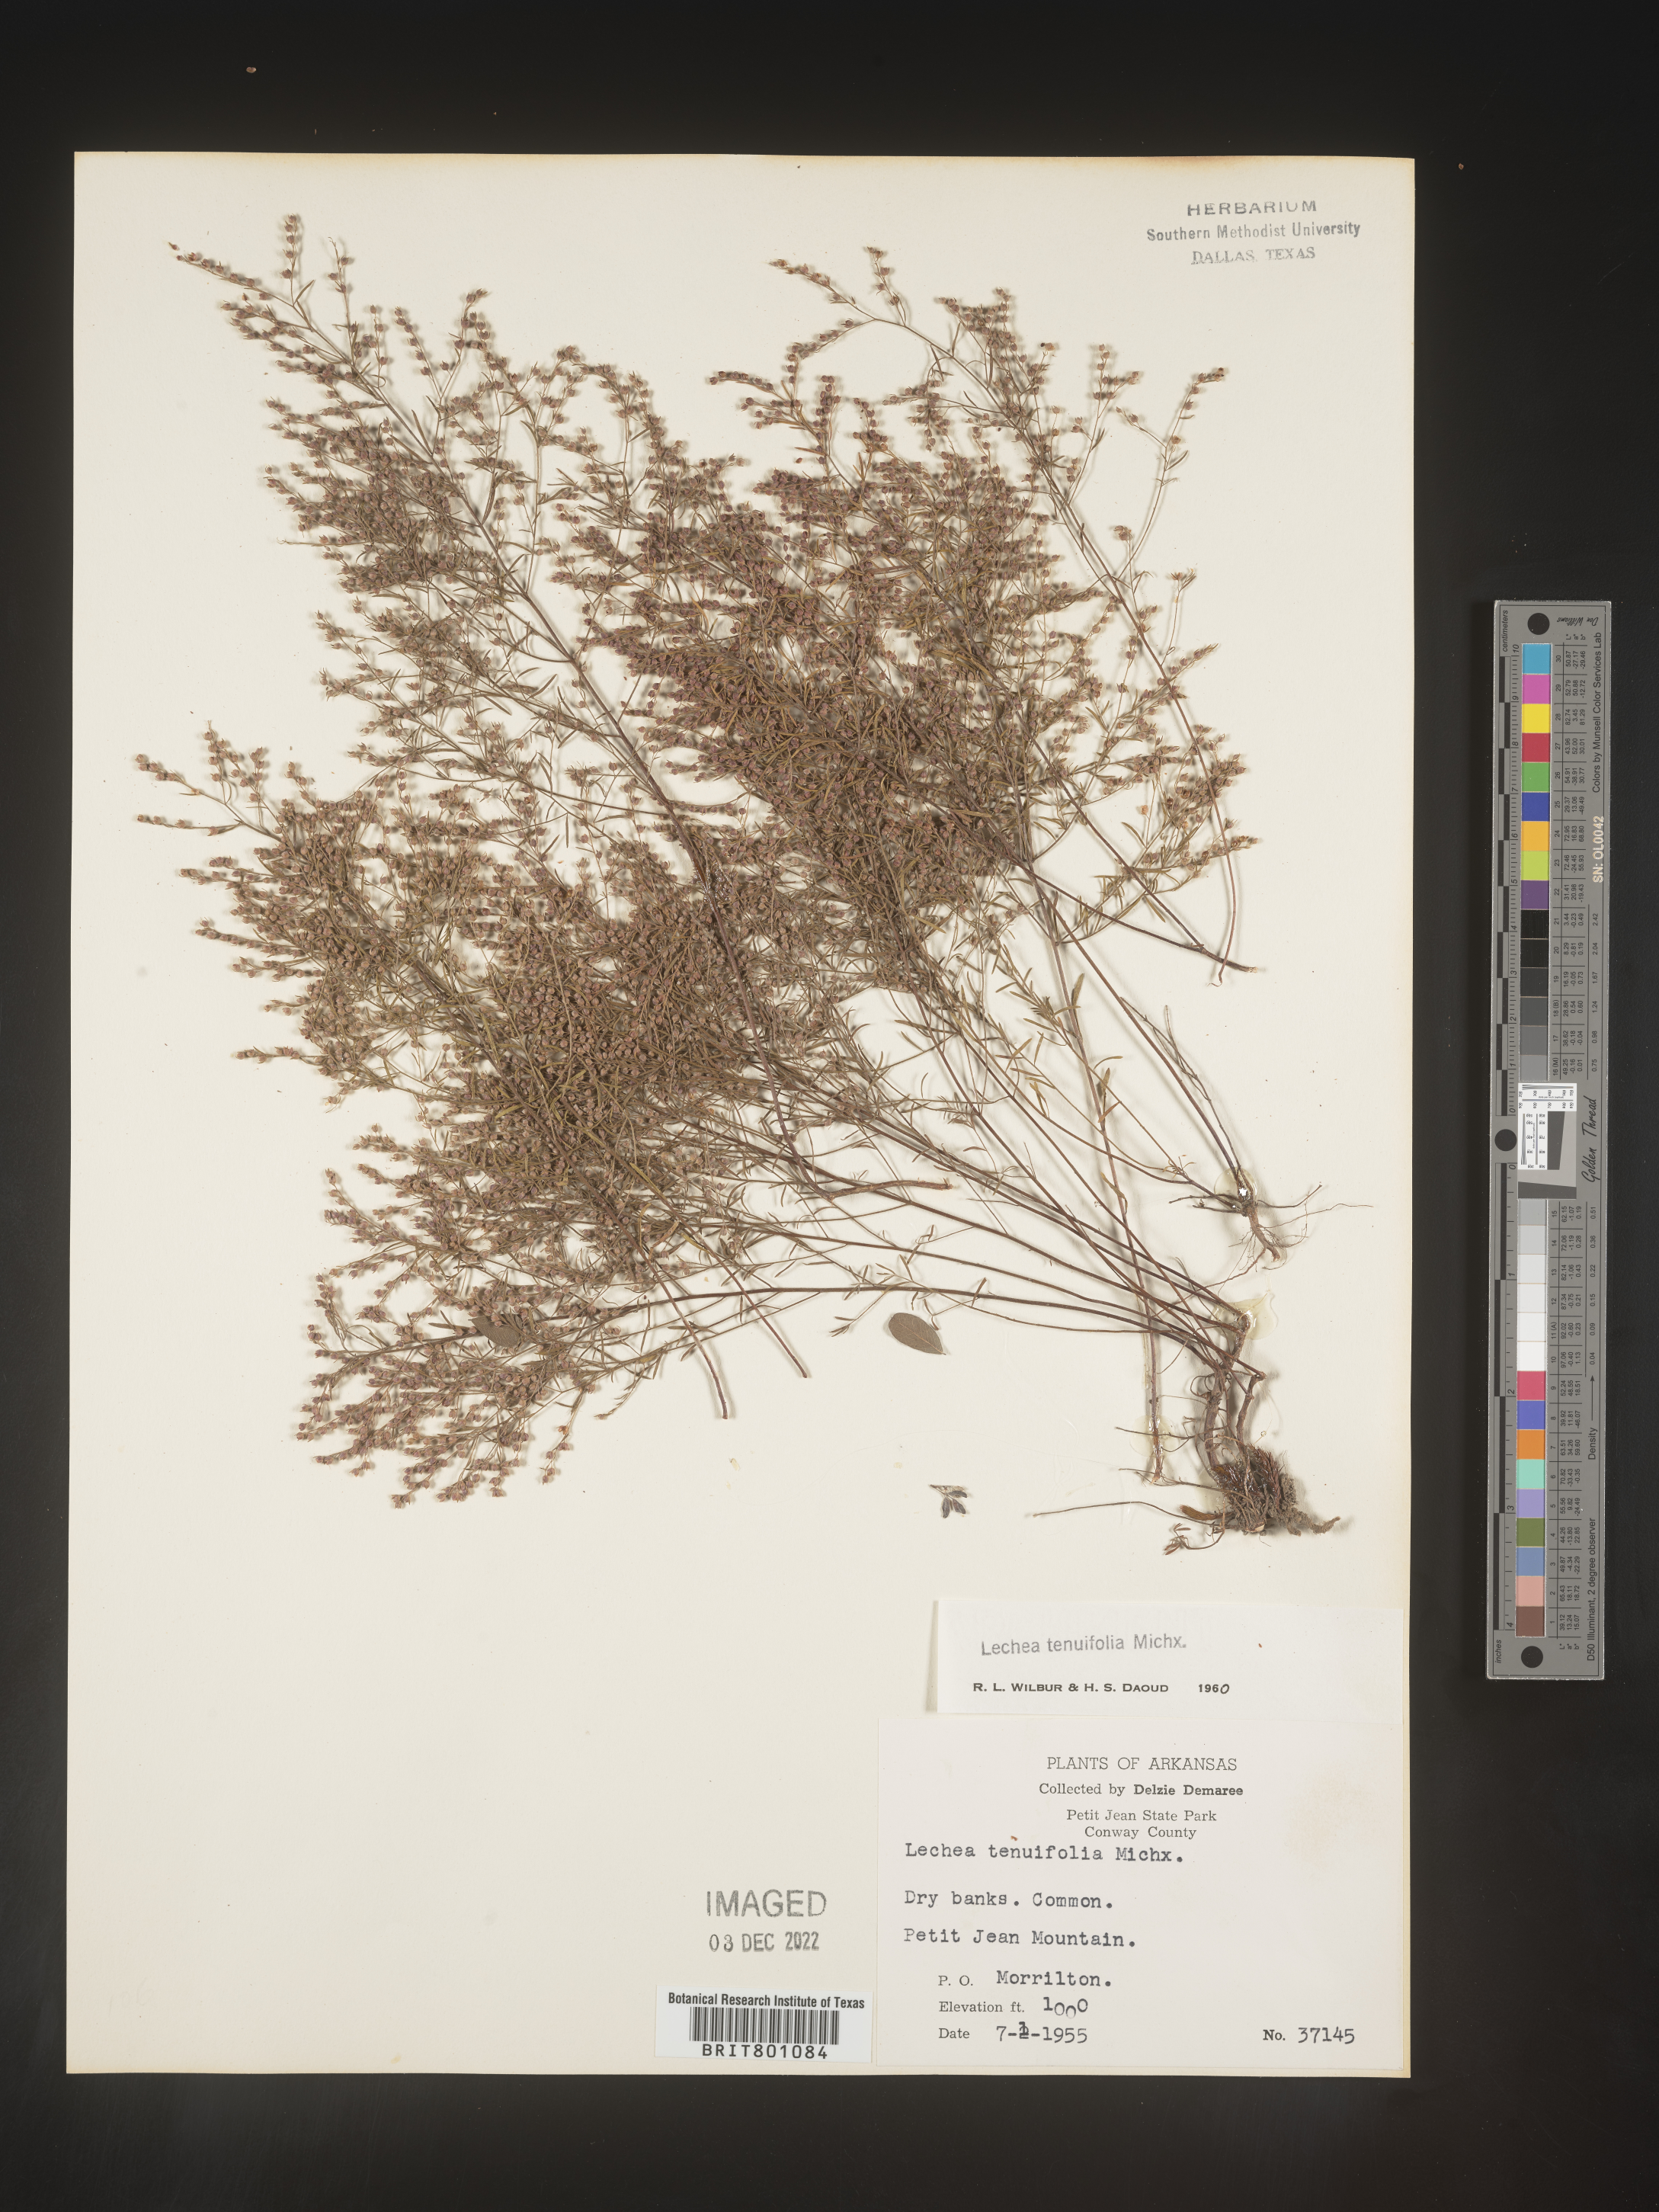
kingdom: Plantae
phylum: Tracheophyta
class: Magnoliopsida
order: Malvales
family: Cistaceae
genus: Lechea
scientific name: Lechea tenuifolia
